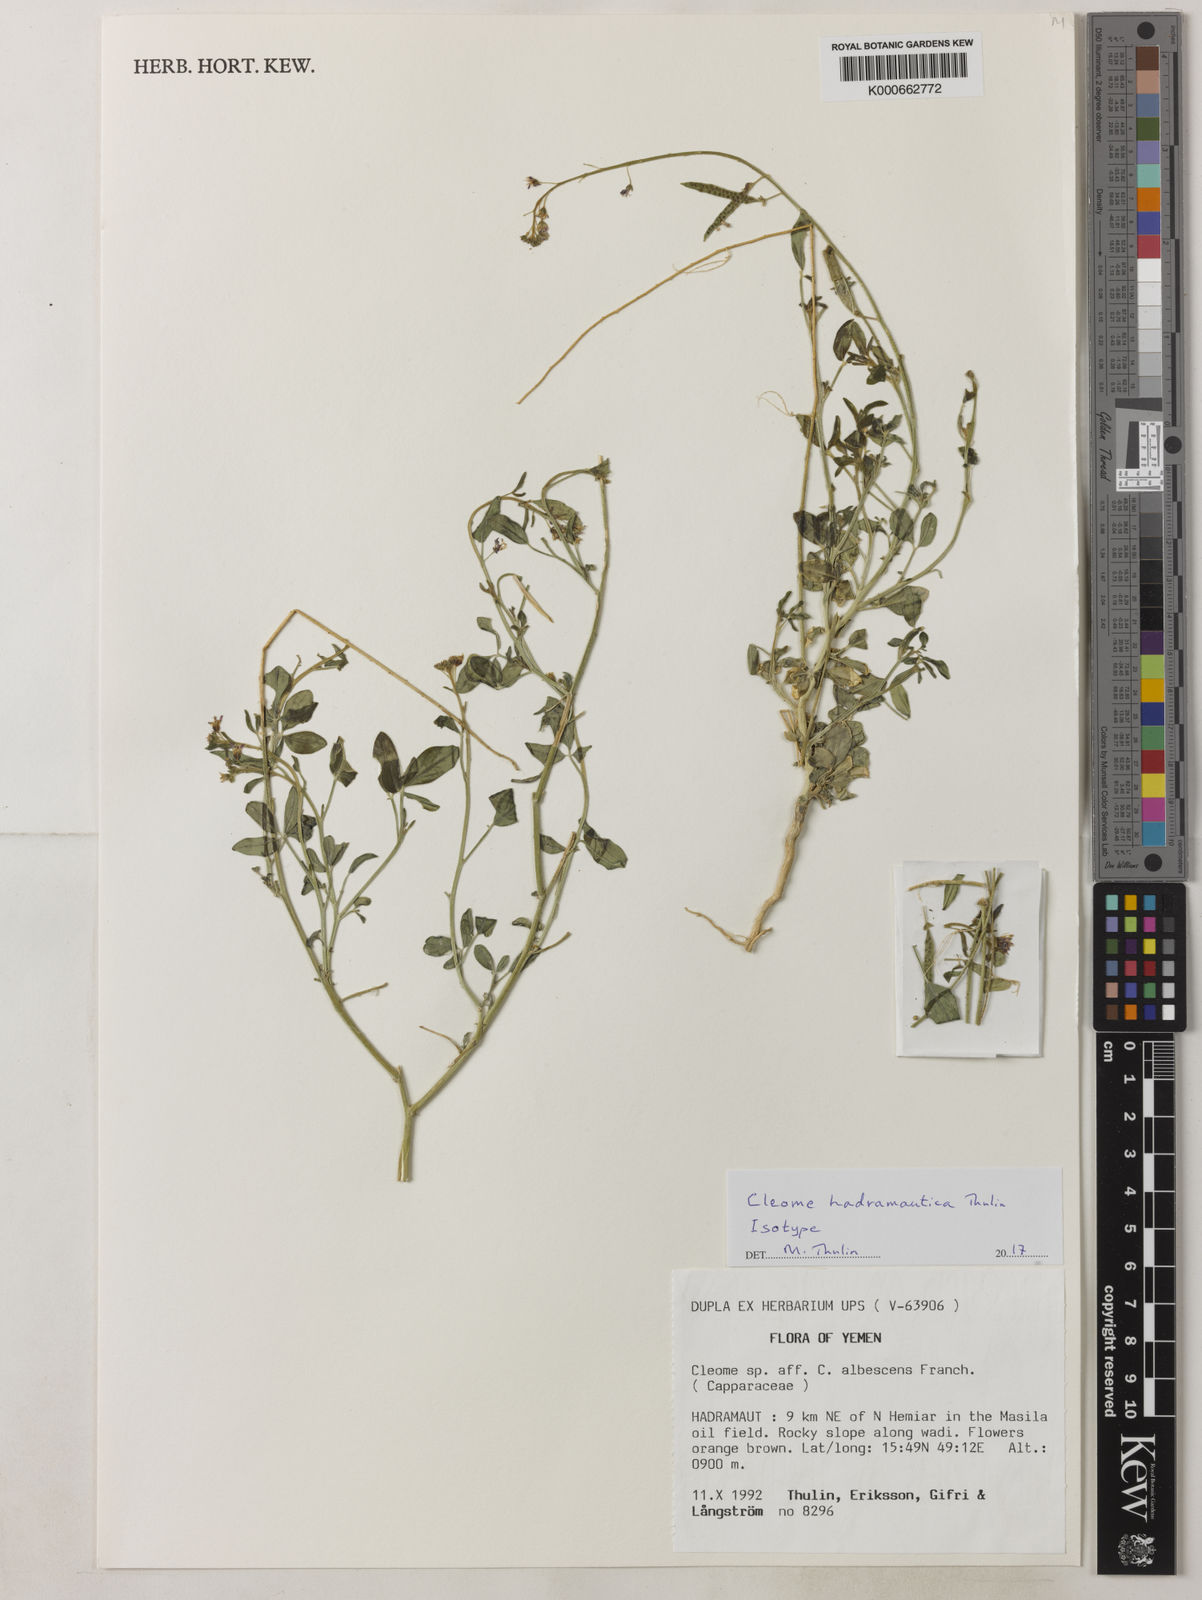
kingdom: Plantae
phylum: Tracheophyta
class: Magnoliopsida
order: Brassicales
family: Cleomaceae
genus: Cleome
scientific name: Cleome hadramautica
